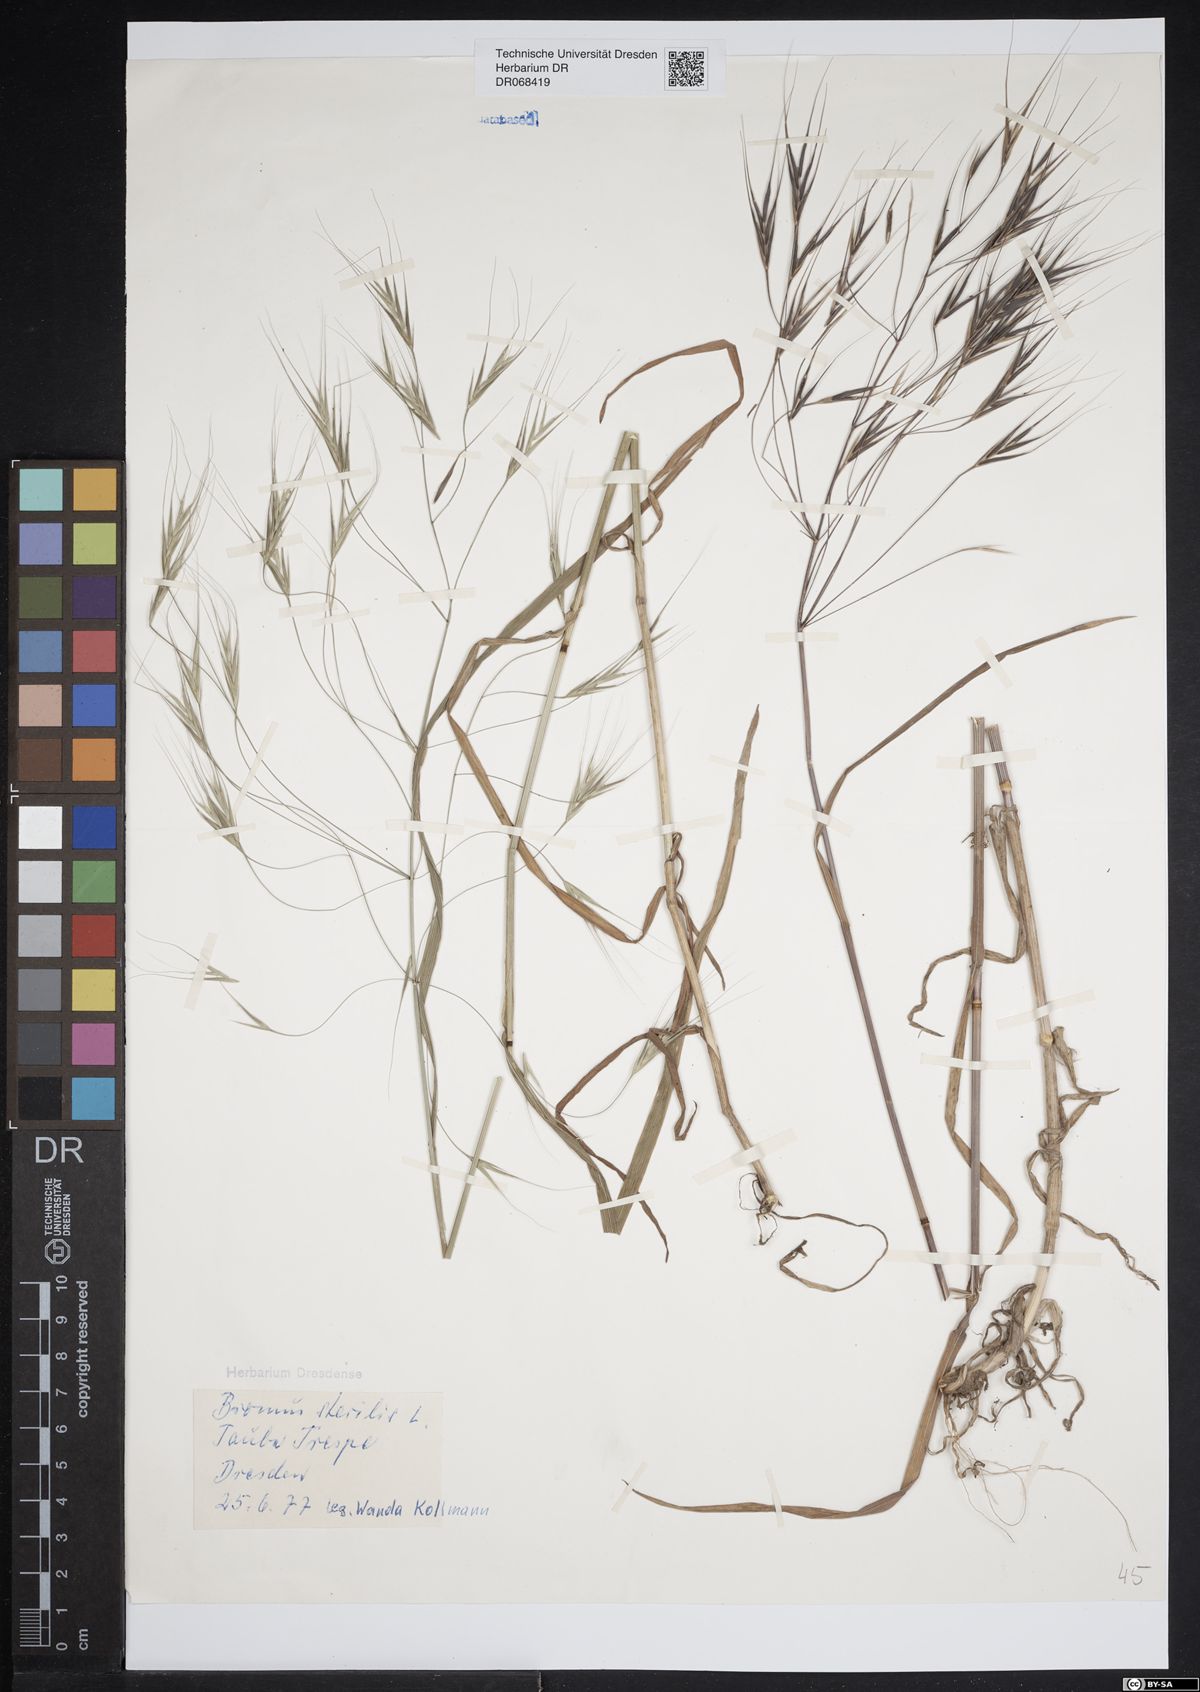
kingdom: Plantae
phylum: Tracheophyta
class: Liliopsida
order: Poales
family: Poaceae
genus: Bromus
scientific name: Bromus sterilis
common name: Poverty brome
